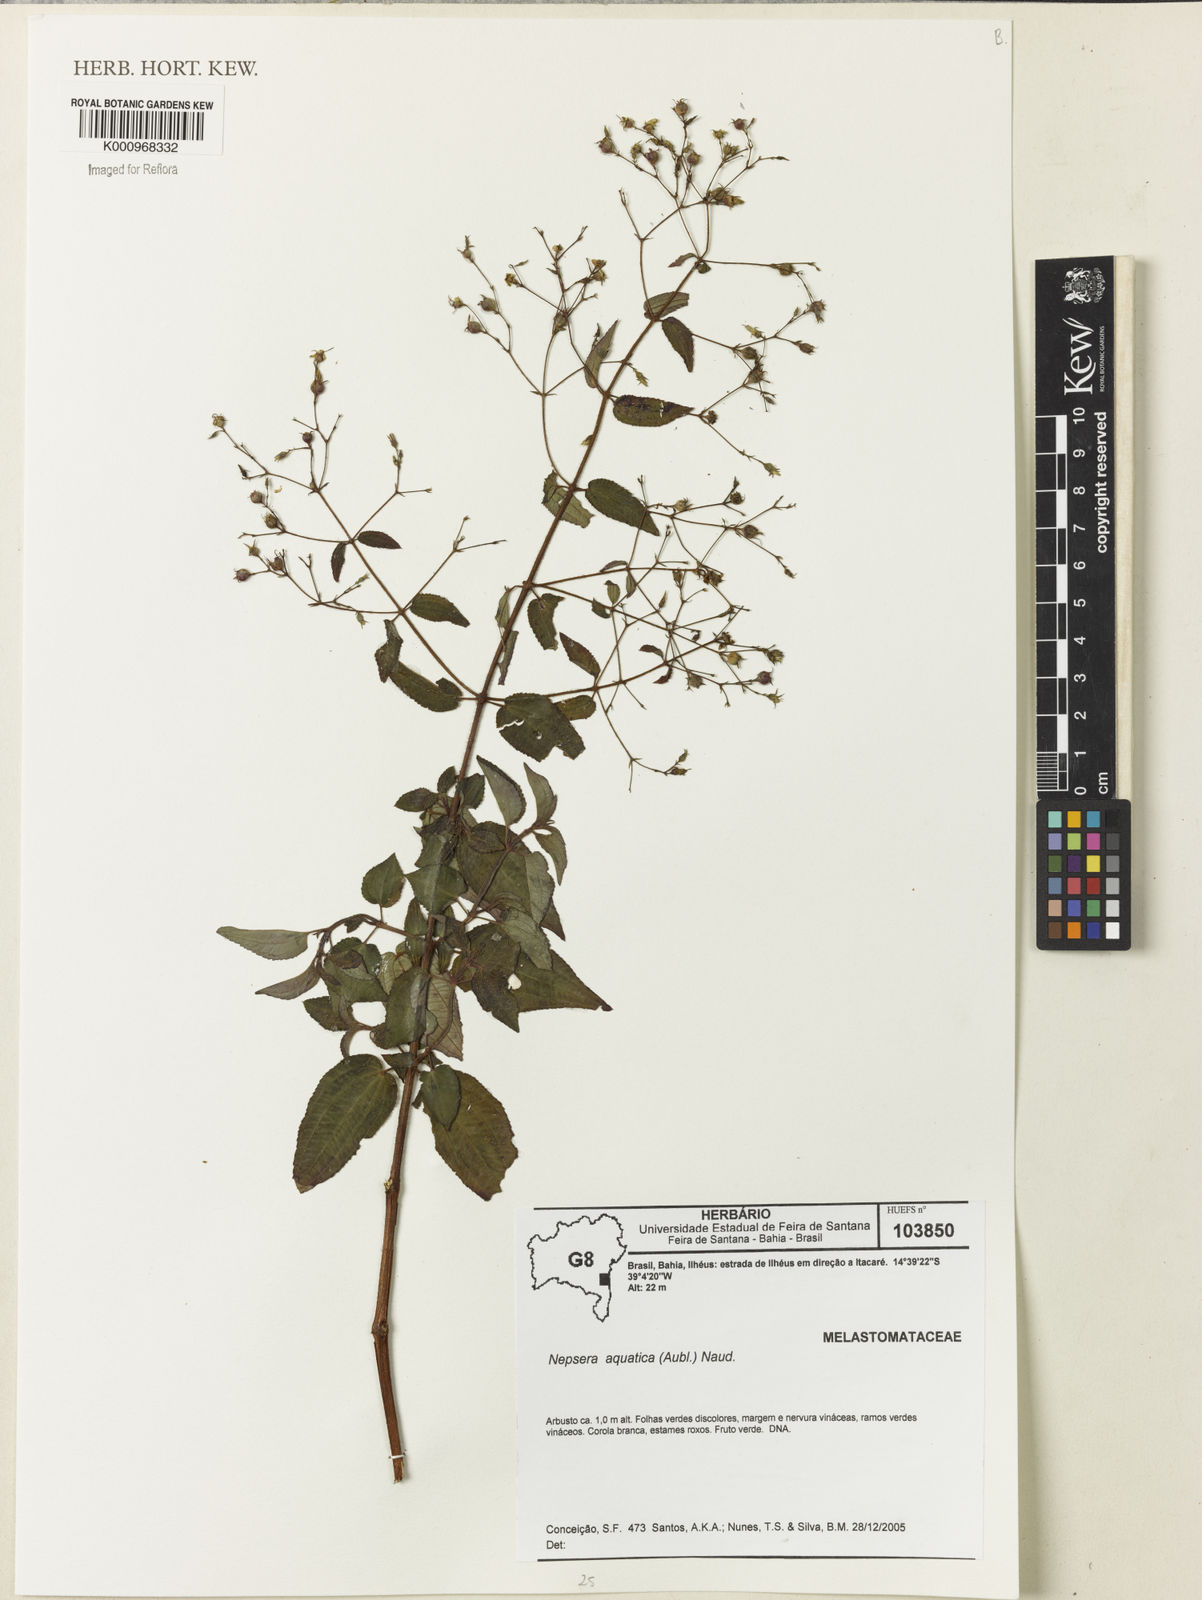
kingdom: Plantae
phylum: Tracheophyta
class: Magnoliopsida
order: Myrtales
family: Melastomataceae
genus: Nepsera
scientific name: Nepsera aquatica
